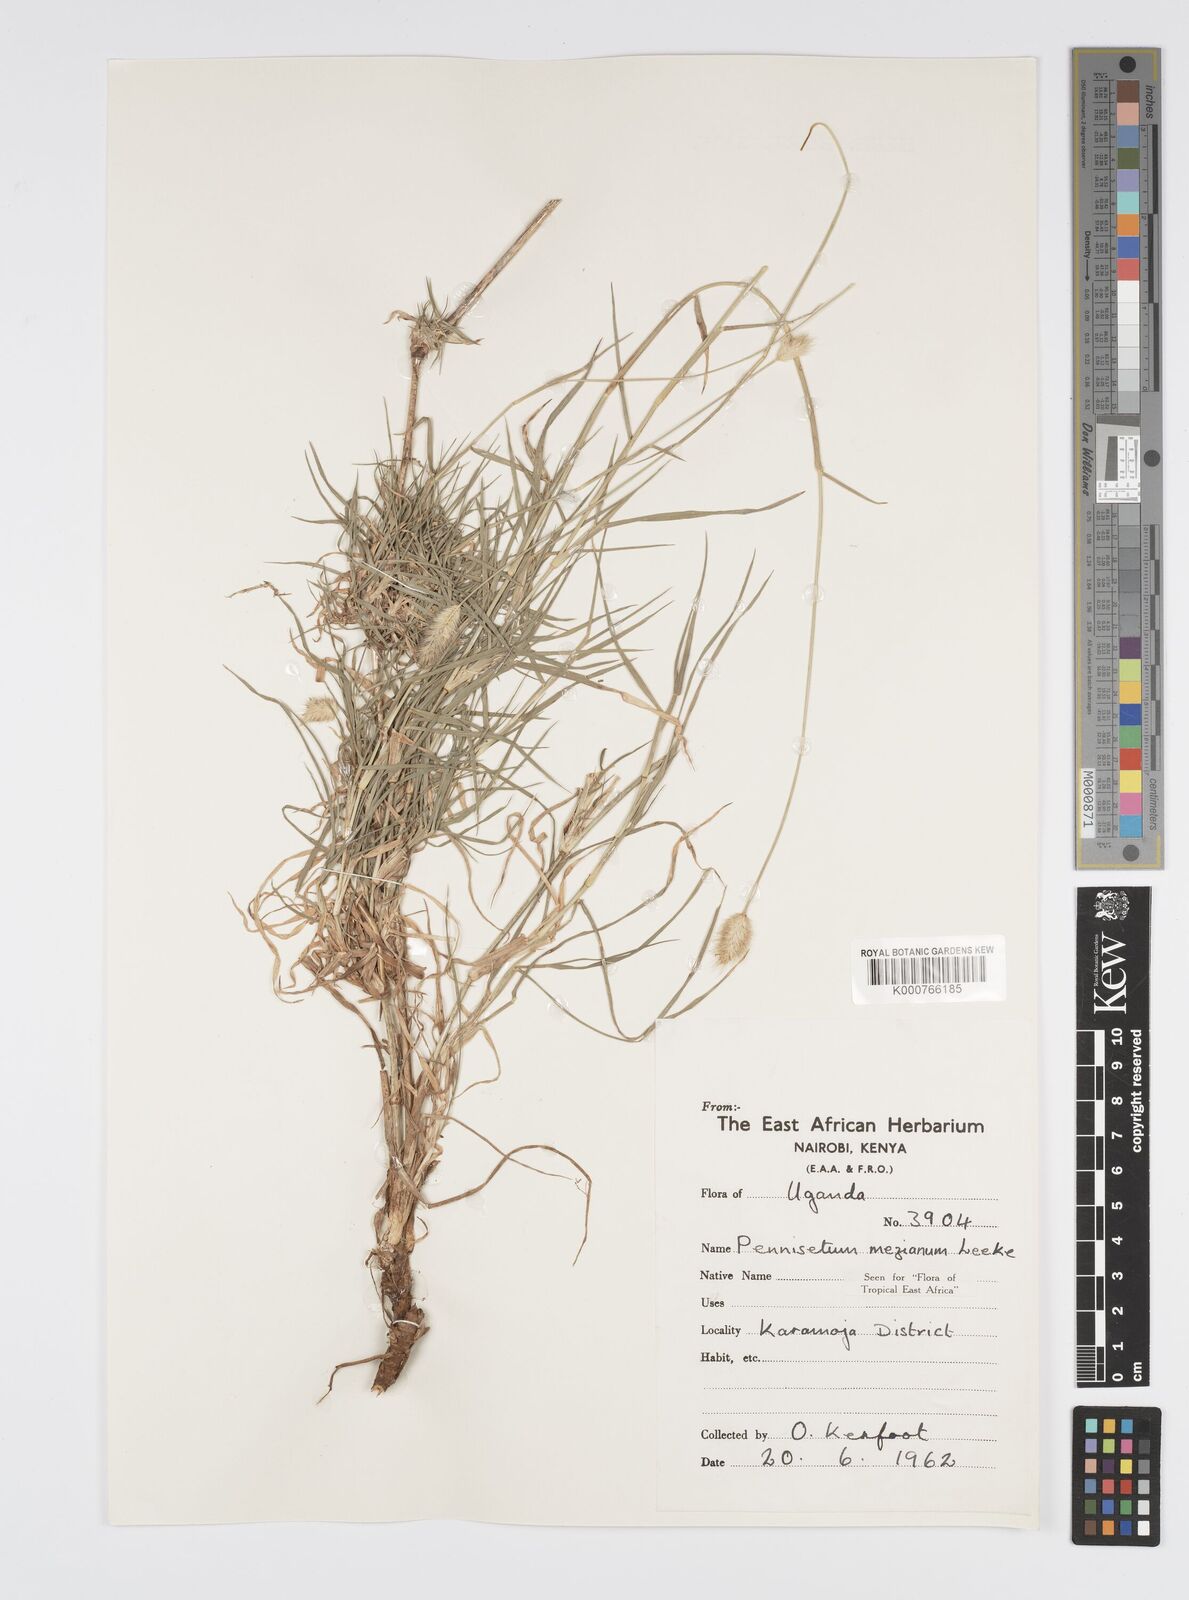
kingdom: Plantae
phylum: Tracheophyta
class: Liliopsida
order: Poales
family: Poaceae
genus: Cenchrus
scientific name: Cenchrus mezianus
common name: Bamboo grass
